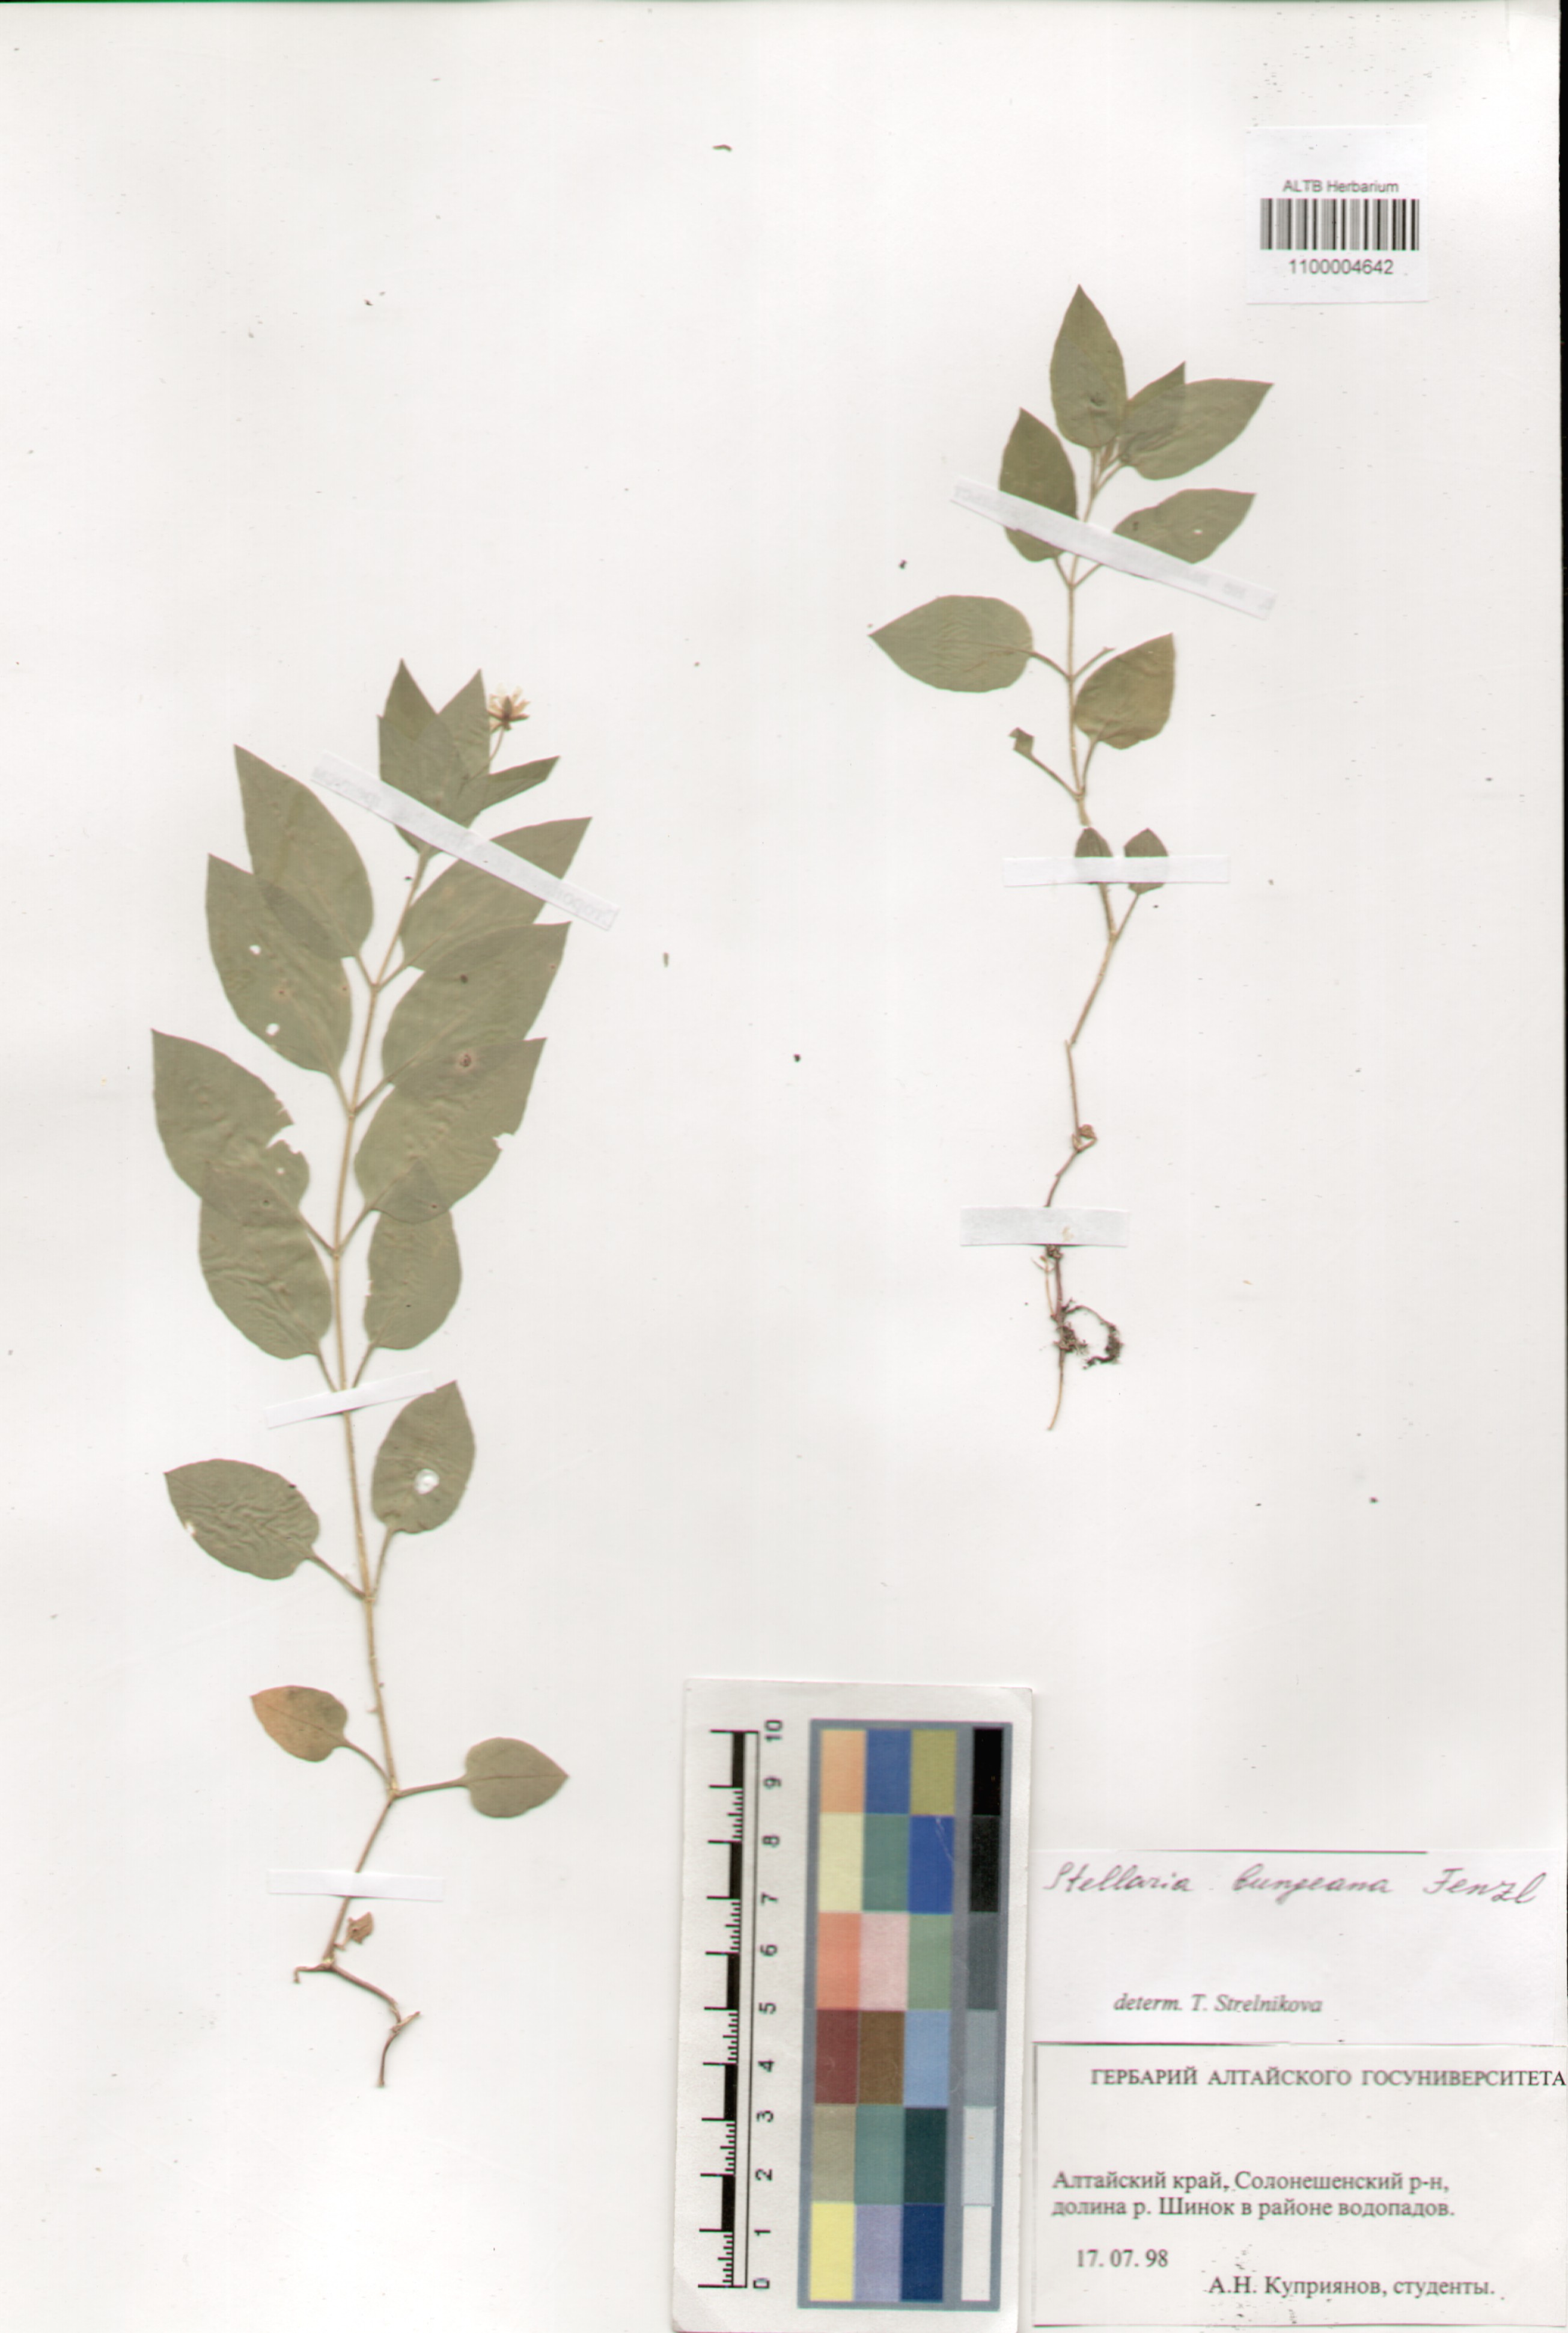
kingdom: Plantae
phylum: Tracheophyta
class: Magnoliopsida
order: Caryophyllales
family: Caryophyllaceae
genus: Stellaria
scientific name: Stellaria bungeana
